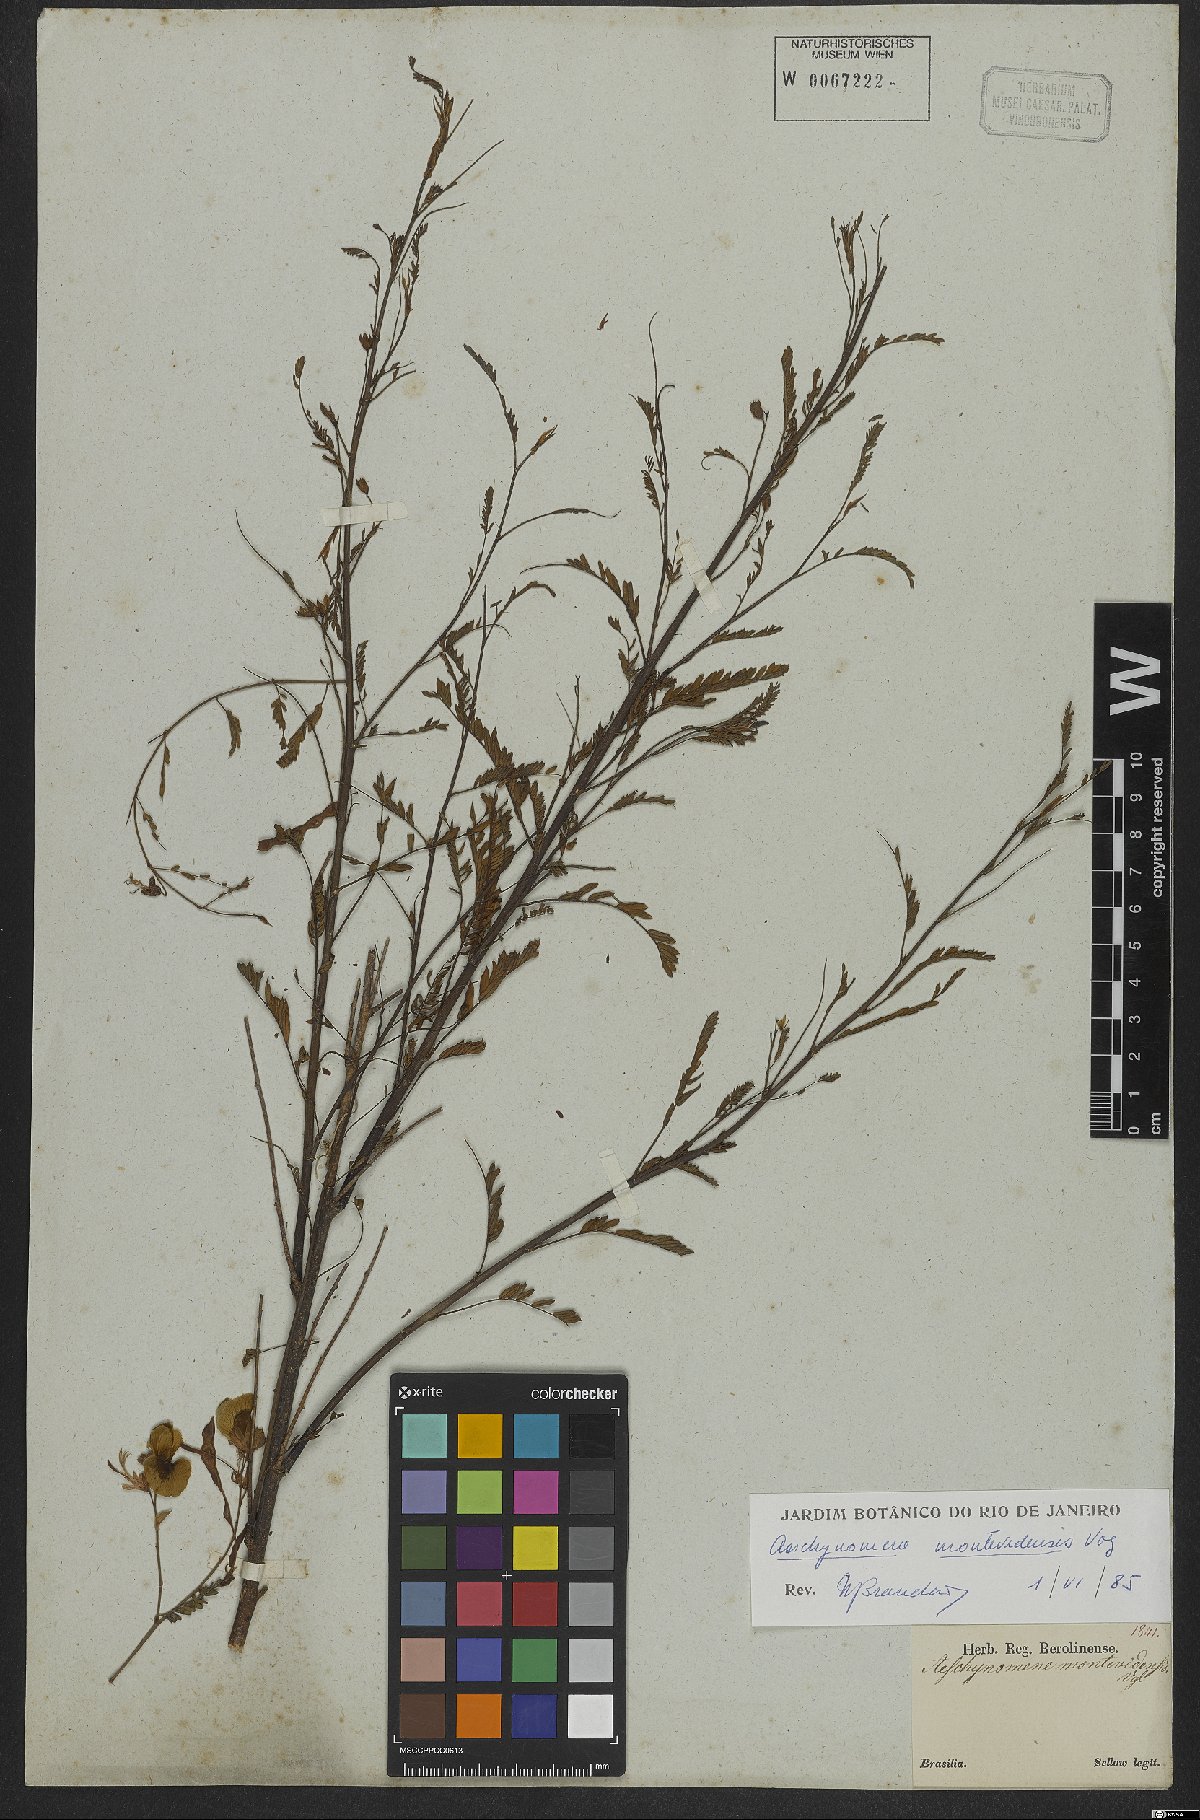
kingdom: Plantae
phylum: Tracheophyta
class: Magnoliopsida
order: Fabales
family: Fabaceae
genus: Aeschynomene
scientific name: Aeschynomene montevidensis
